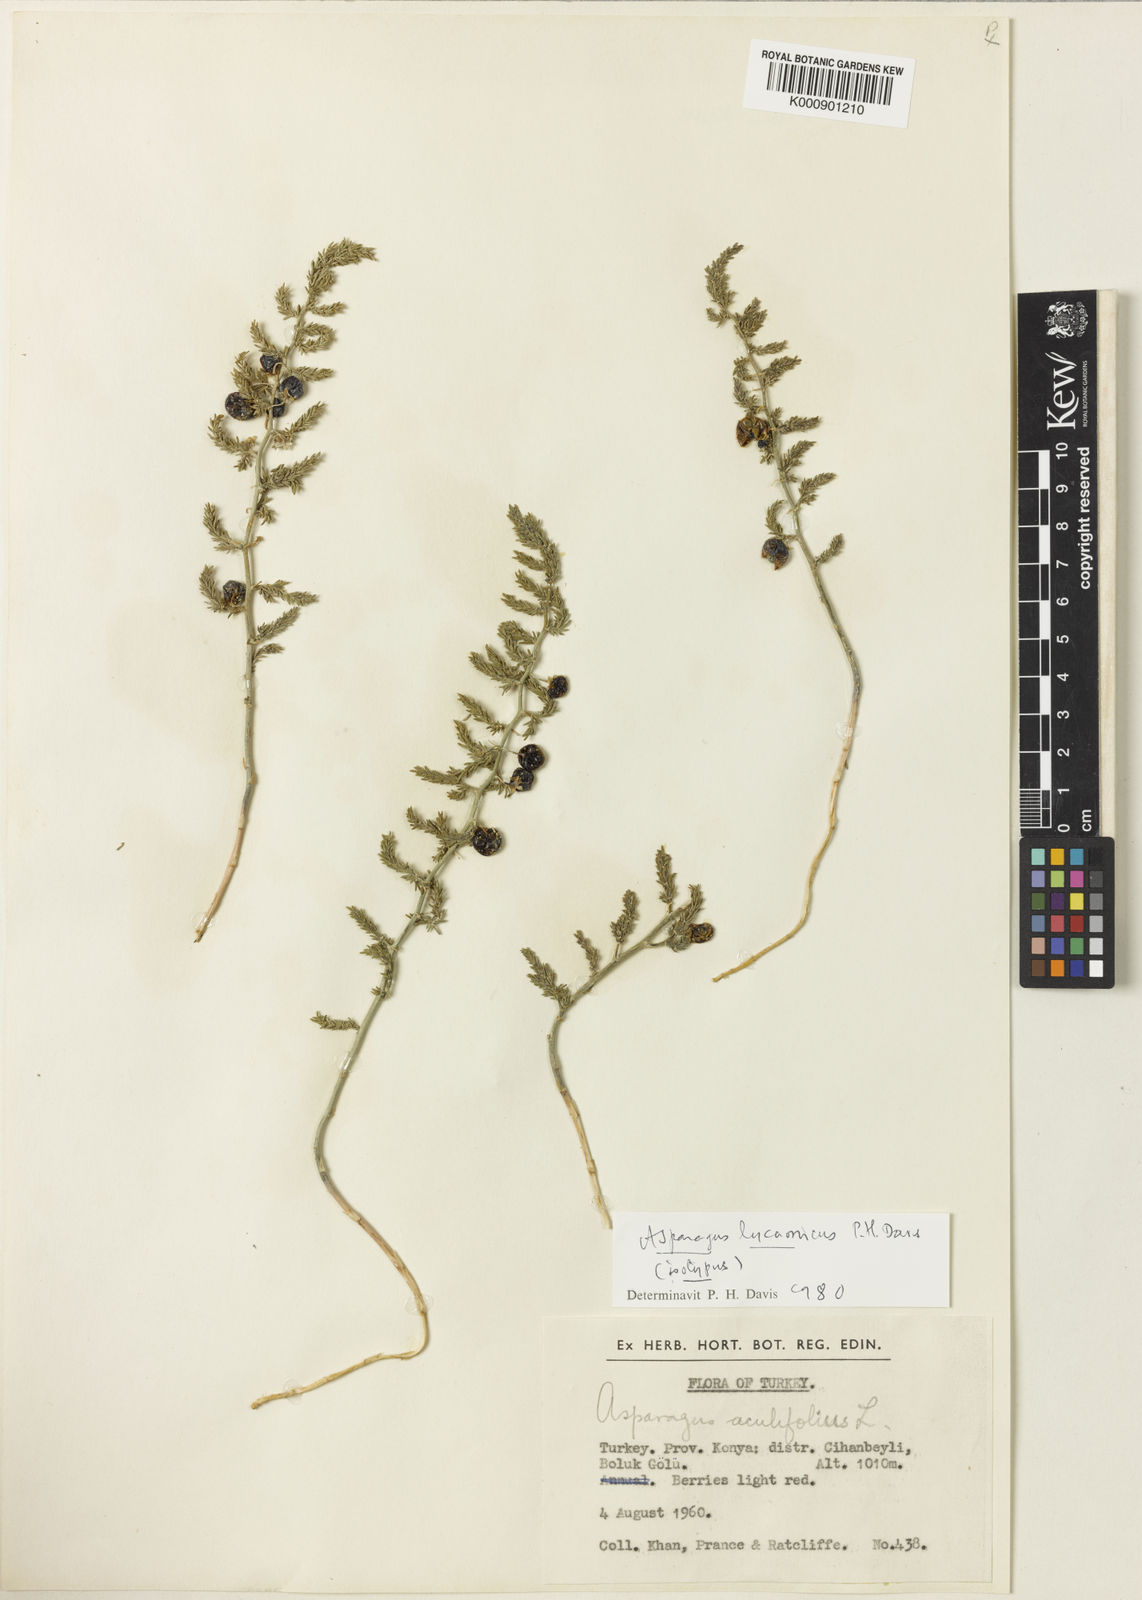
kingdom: Plantae
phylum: Tracheophyta
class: Liliopsida
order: Asparagales
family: Asparagaceae
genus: Asparagus
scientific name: Asparagus lycaonicus
